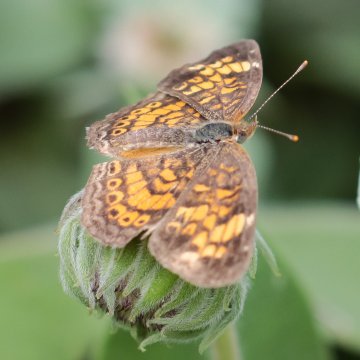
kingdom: Animalia
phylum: Arthropoda
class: Insecta
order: Lepidoptera
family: Nymphalidae
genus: Phyciodes
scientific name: Phyciodes tharos
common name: Pearl Crescent
